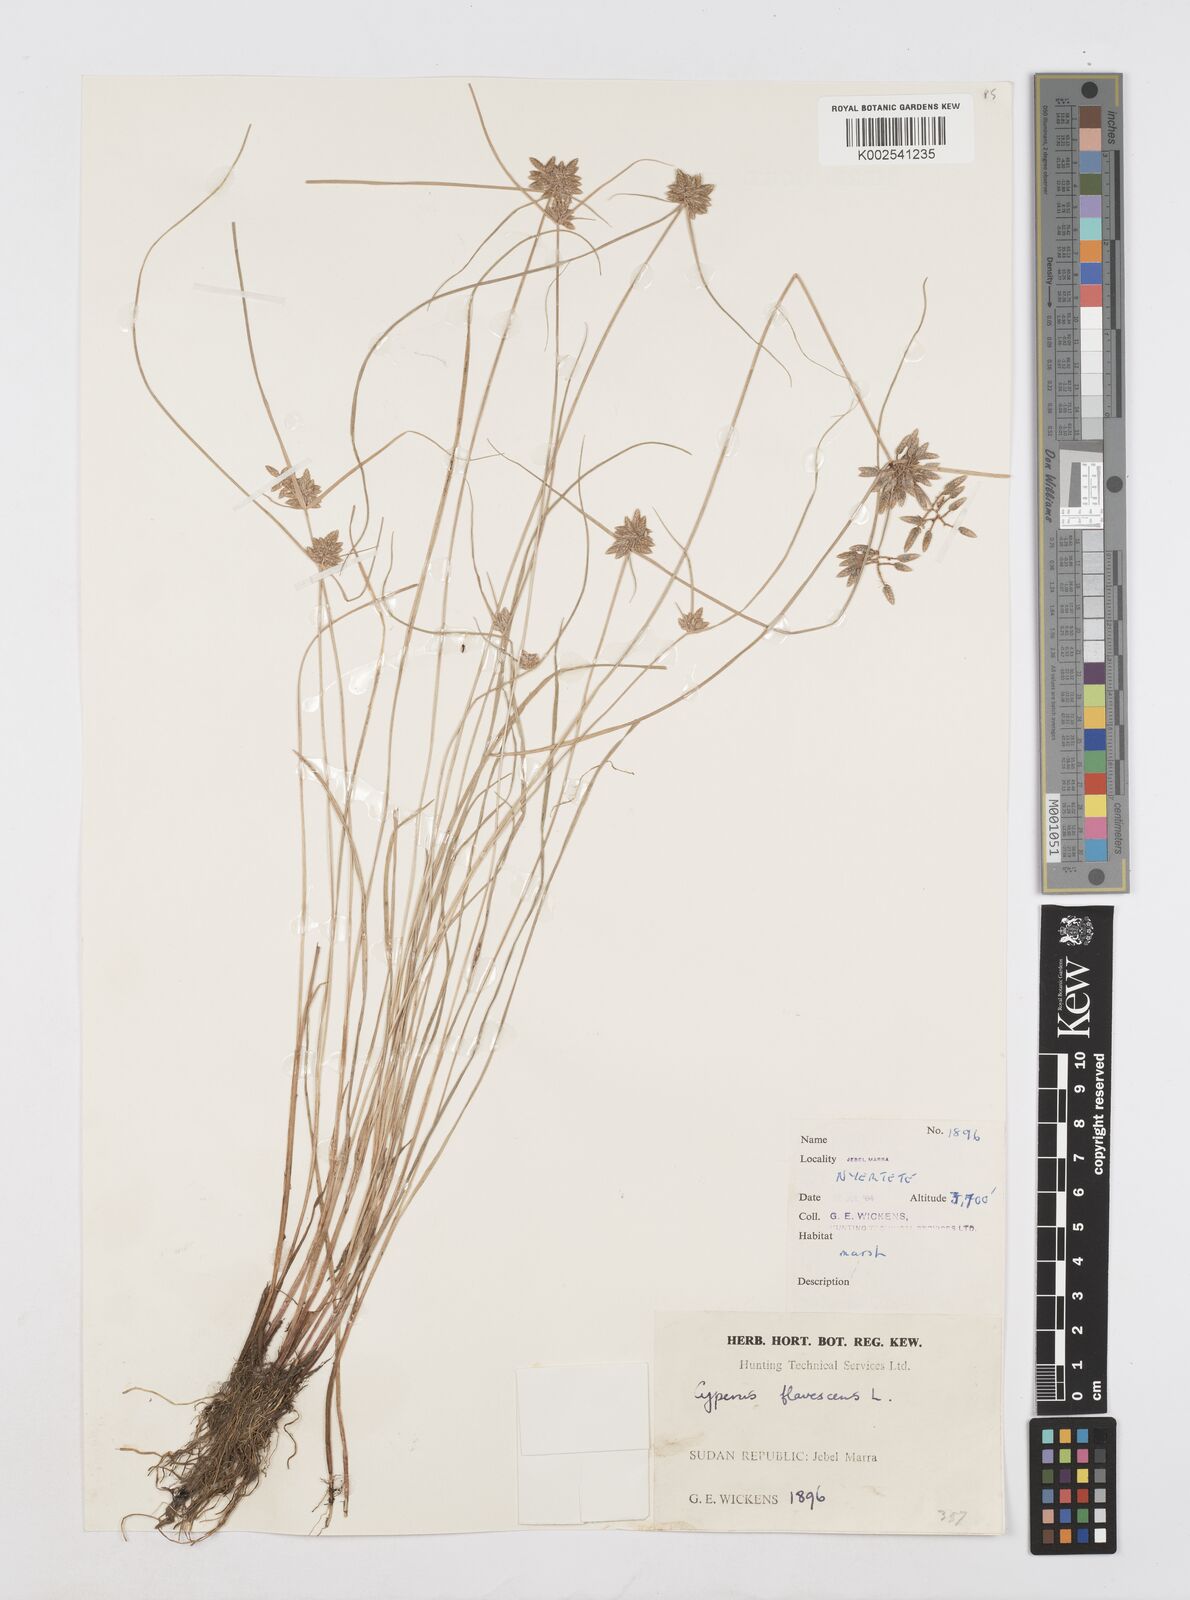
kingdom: Plantae
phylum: Tracheophyta
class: Liliopsida
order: Poales
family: Cyperaceae
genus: Cyperus
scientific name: Cyperus flavescens
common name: Yellow galingale
